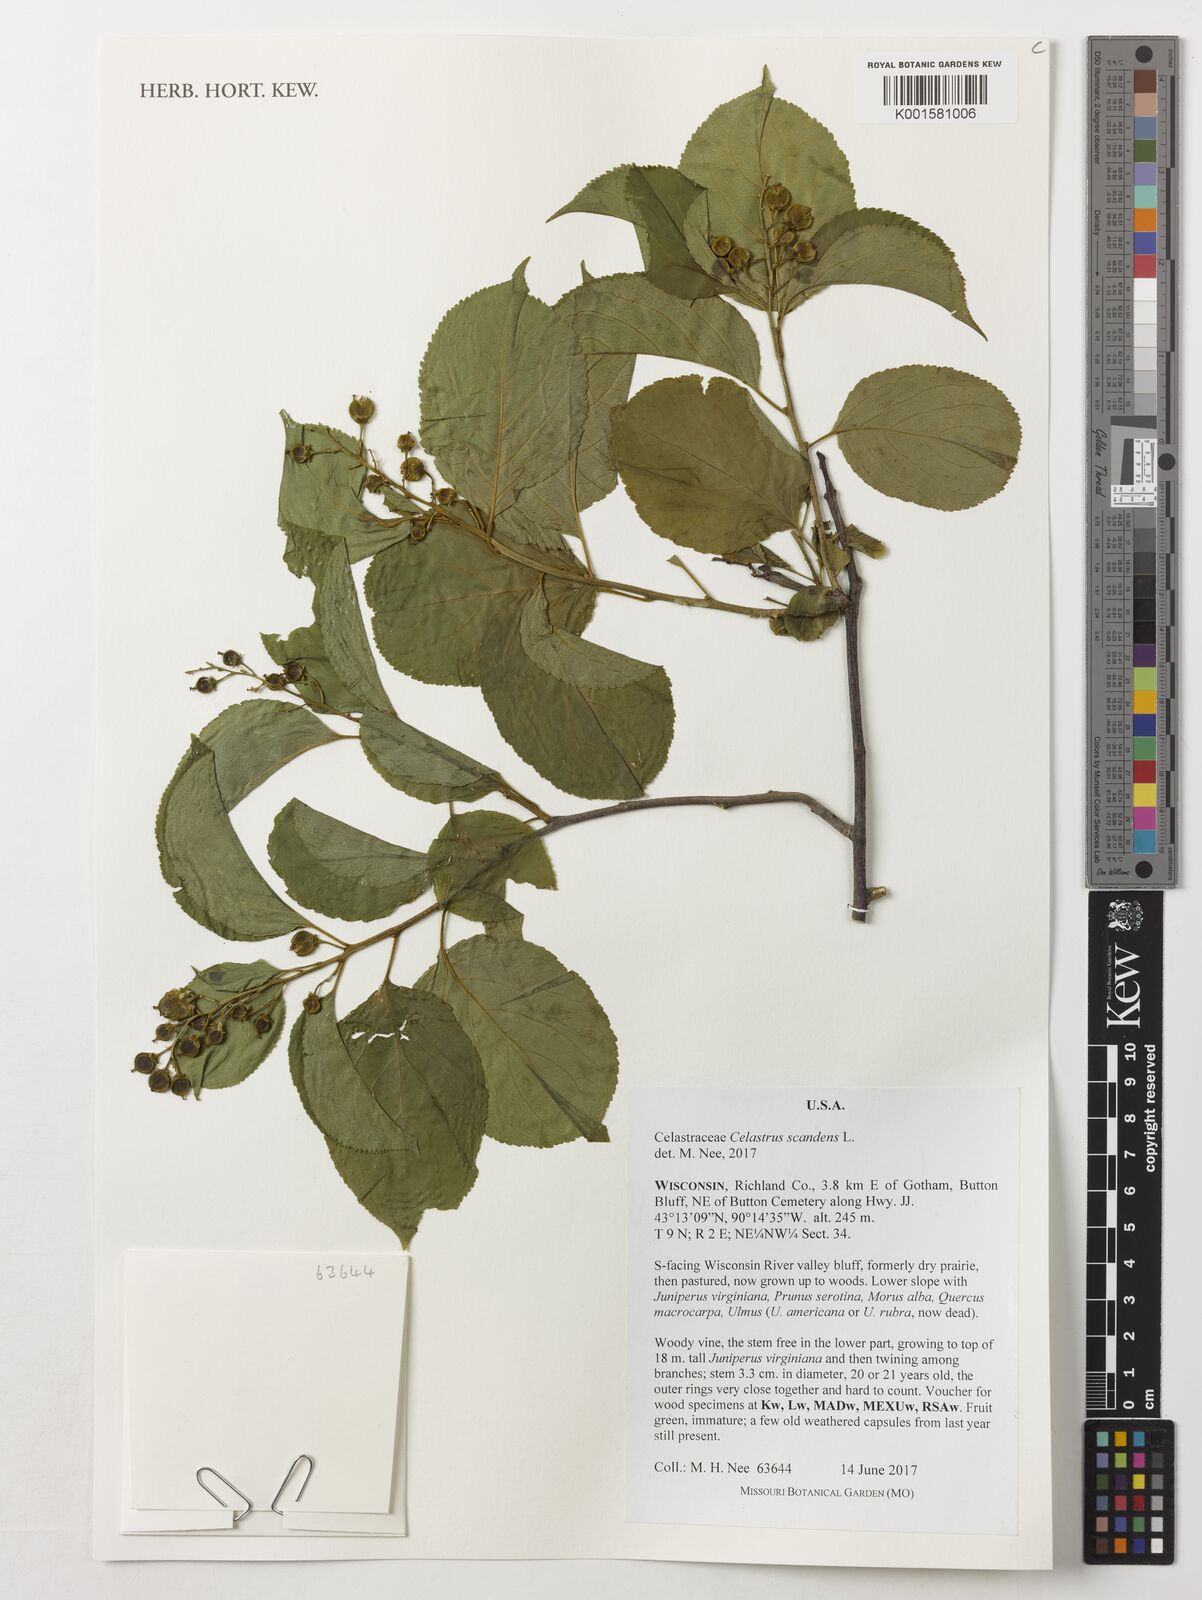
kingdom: Plantae
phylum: Tracheophyta
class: Magnoliopsida
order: Celastrales
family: Celastraceae
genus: Celastrus
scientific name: Celastrus scandens
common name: American bittersweet
